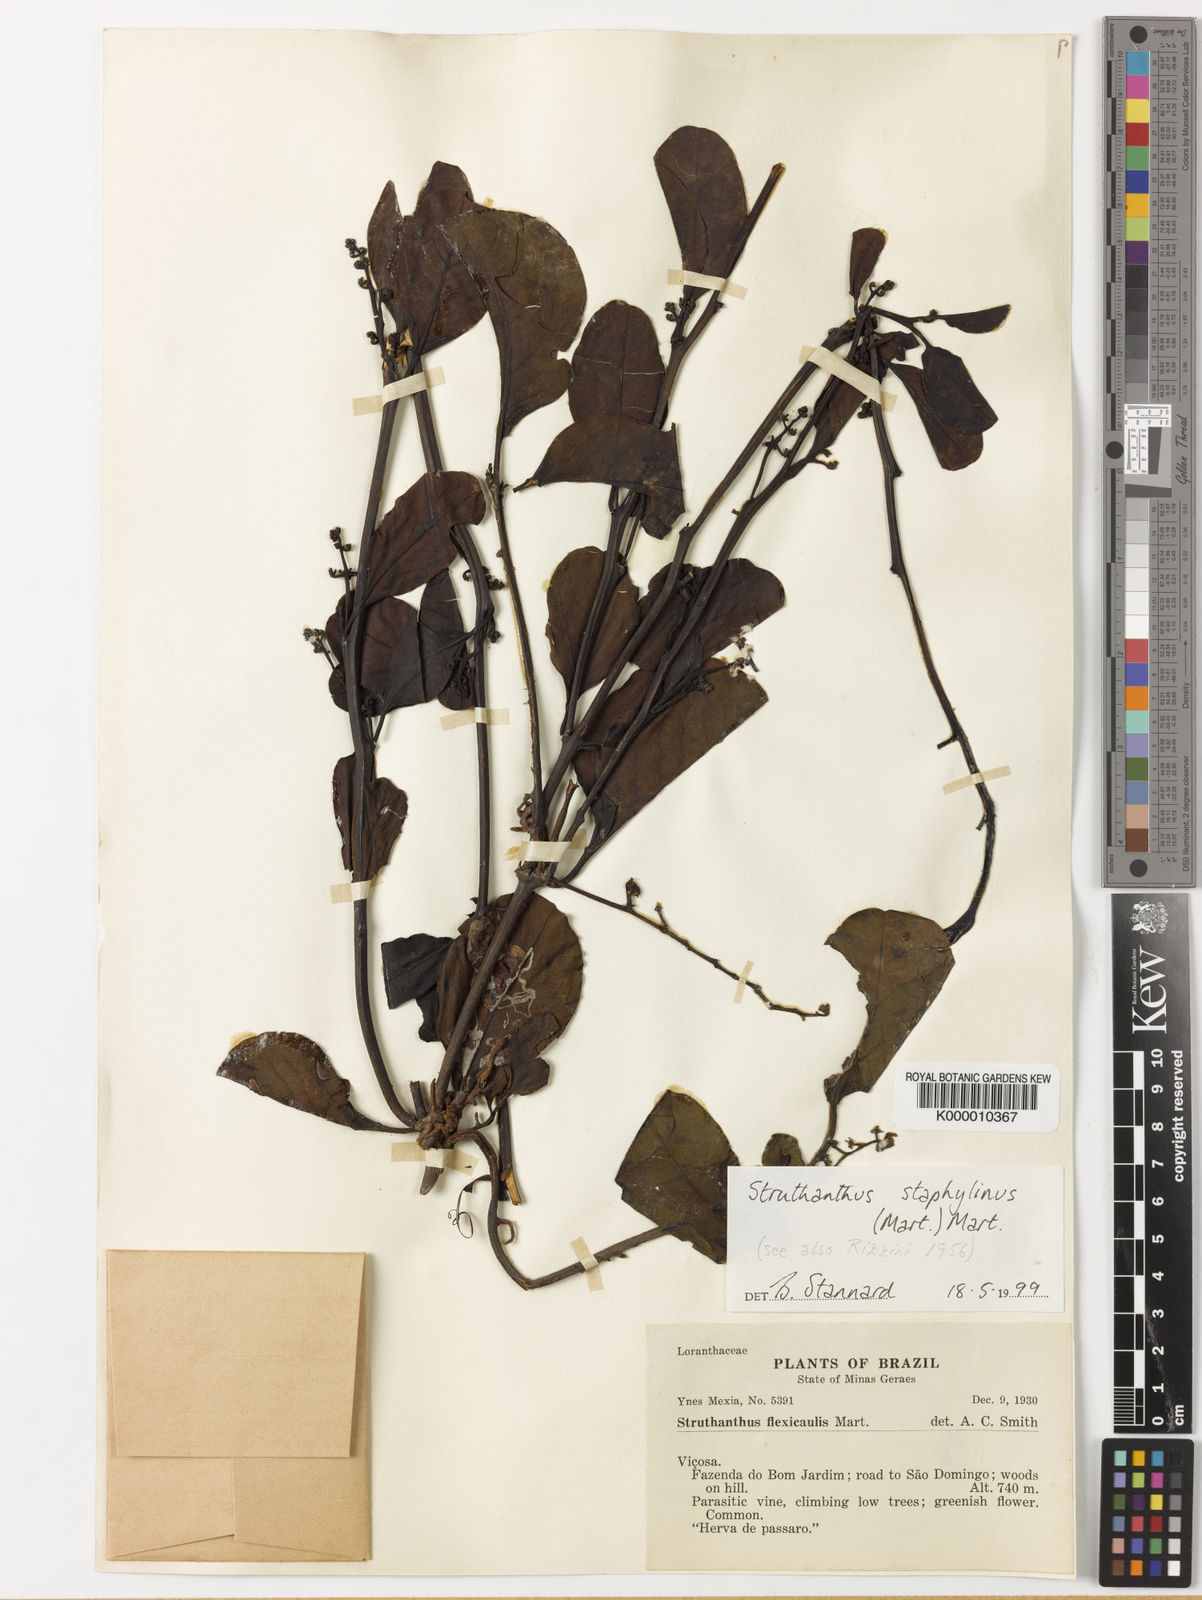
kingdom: Plantae
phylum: Tracheophyta
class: Magnoliopsida
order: Santalales
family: Loranthaceae
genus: Struthanthus
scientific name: Struthanthus staphylinus
